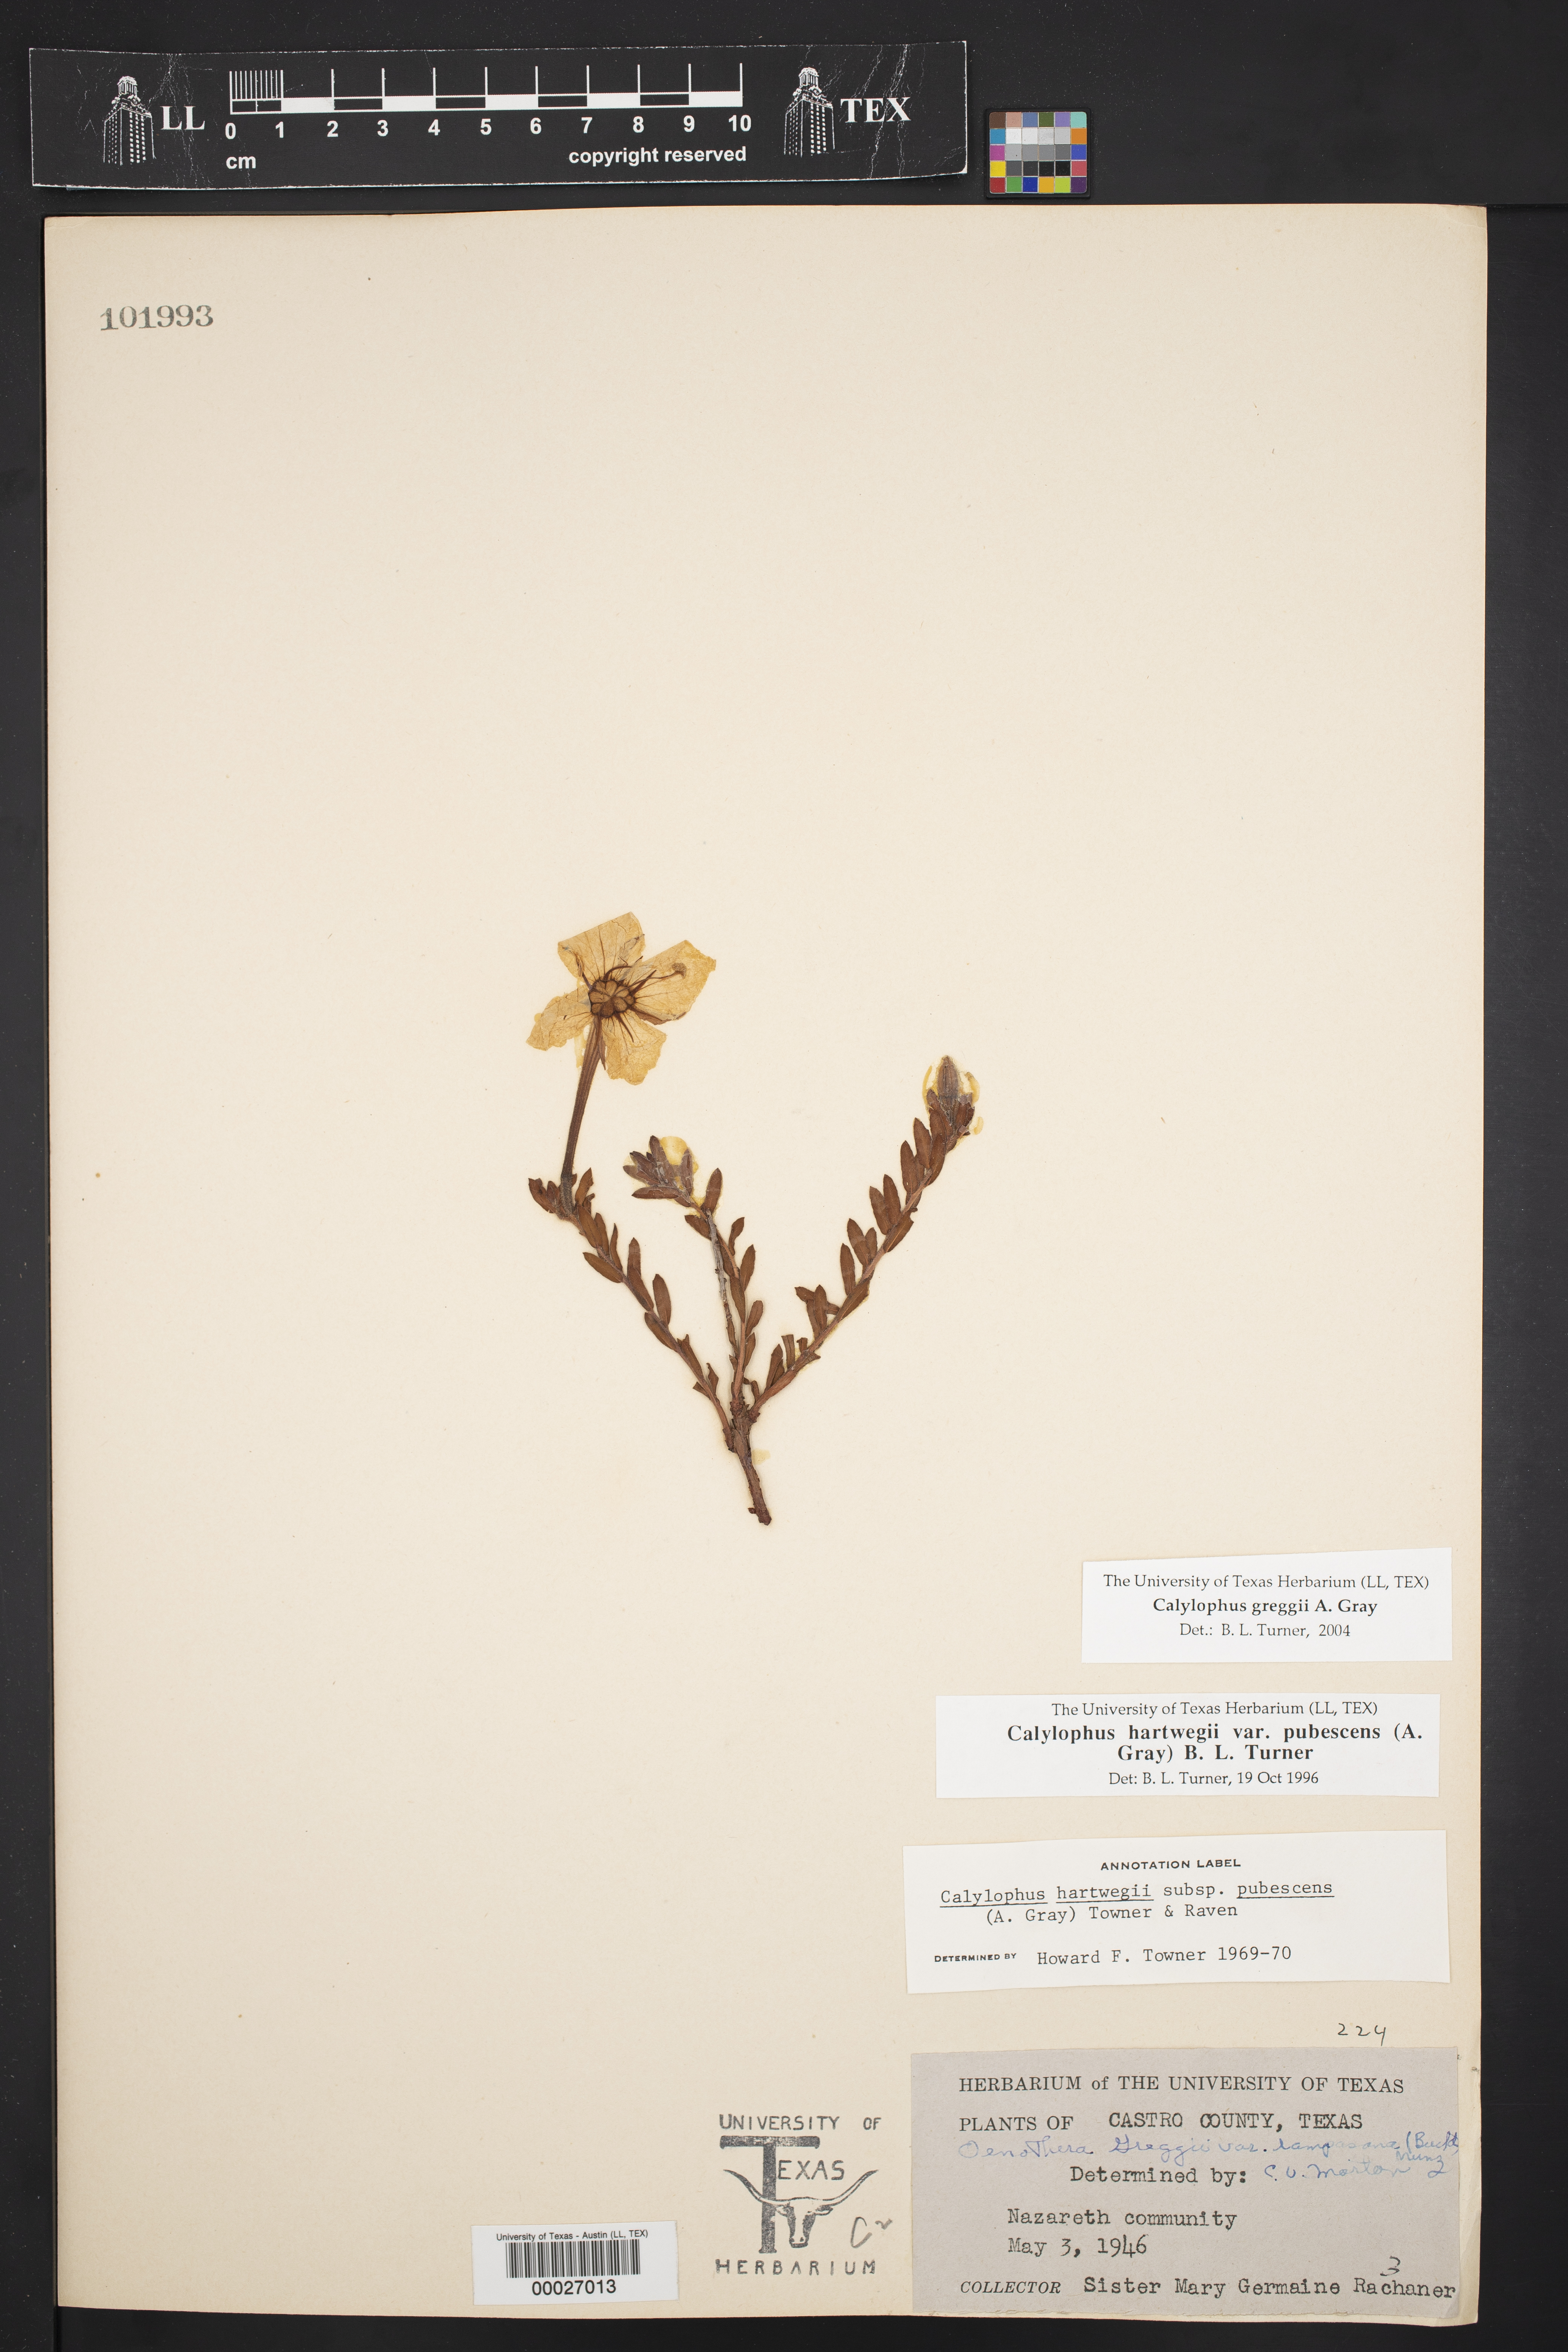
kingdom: Plantae
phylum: Tracheophyta
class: Magnoliopsida
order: Myrtales
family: Onagraceae
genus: Oenothera
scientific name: Oenothera hartwegii
